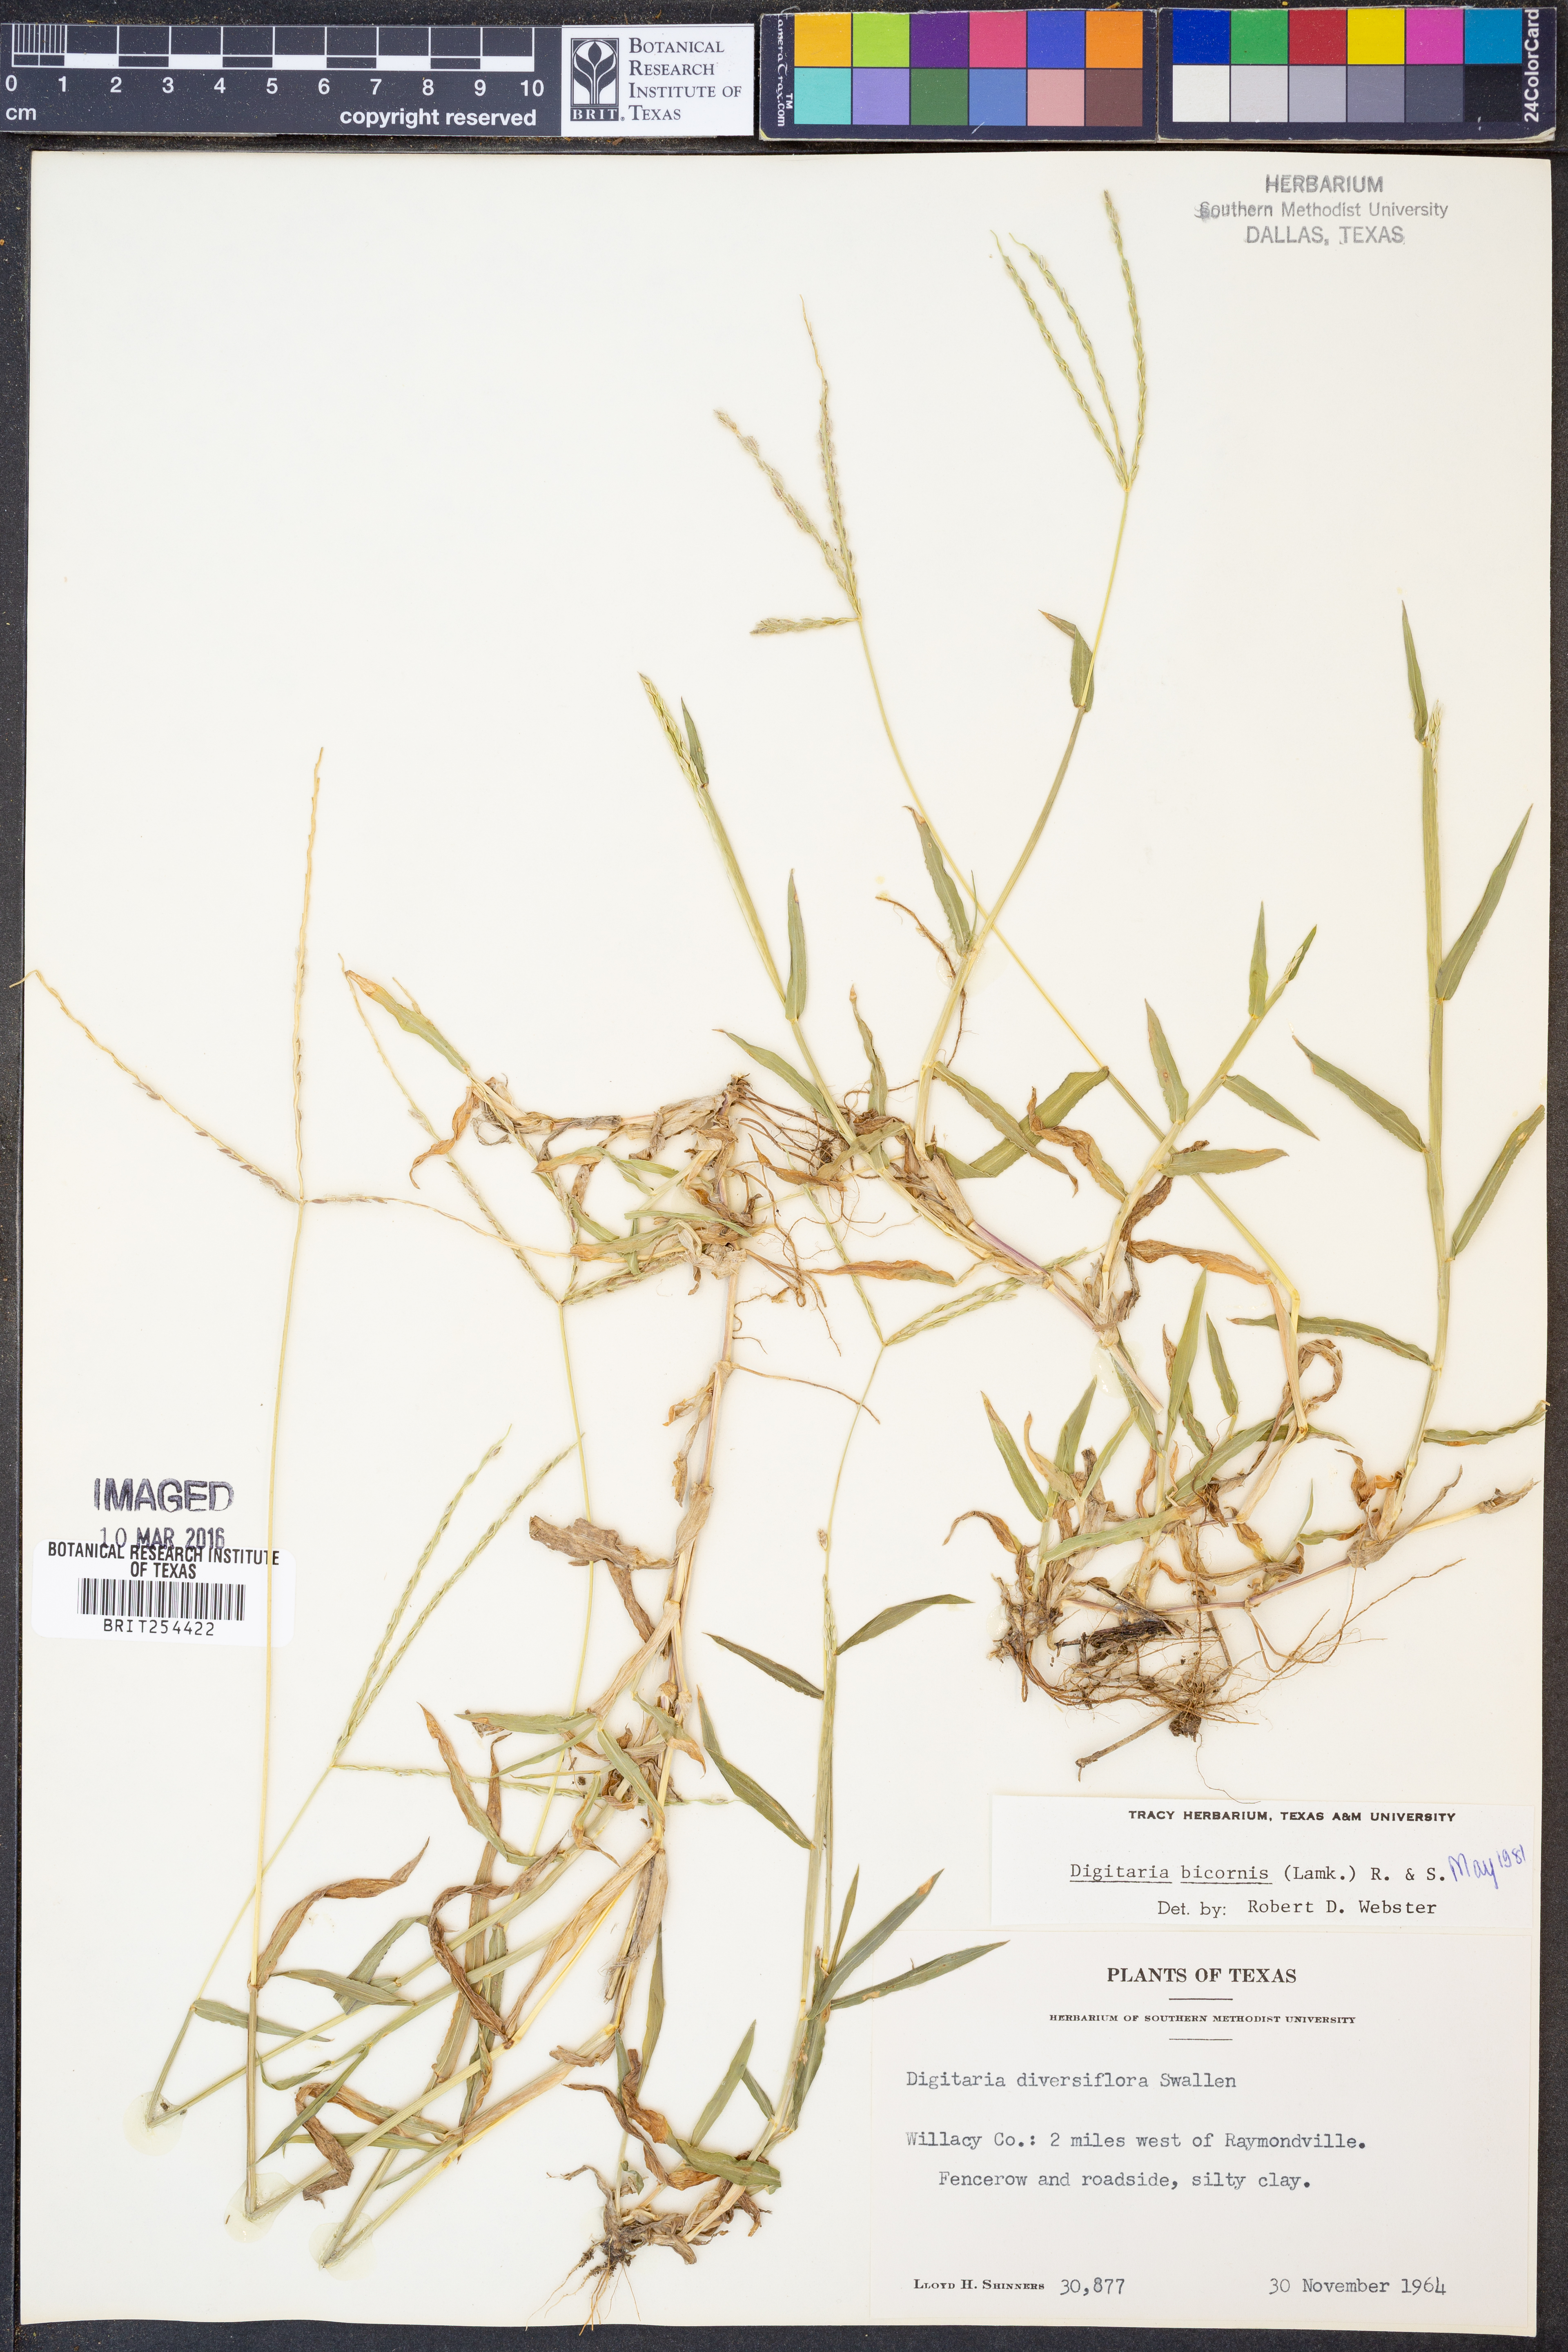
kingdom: Plantae
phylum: Tracheophyta
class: Liliopsida
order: Poales
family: Poaceae
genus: Digitaria
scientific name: Digitaria bicornis
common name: Asian crabgrass
